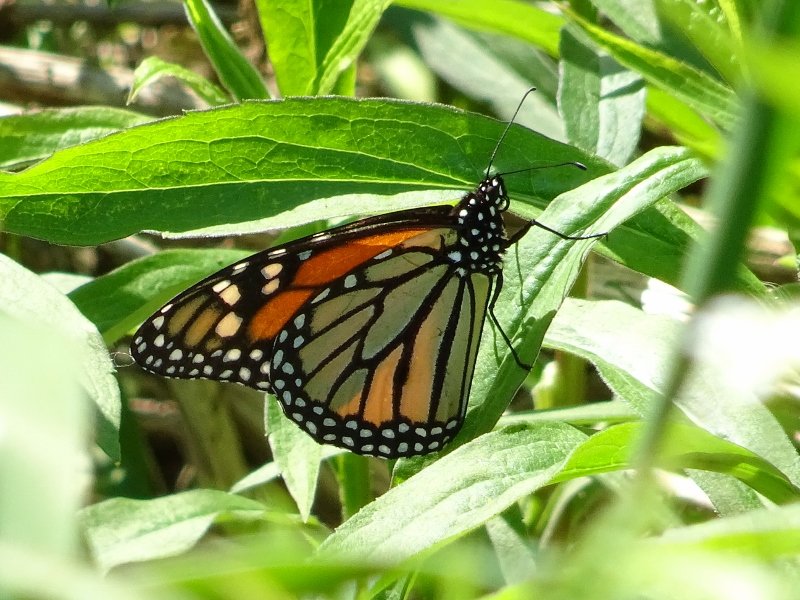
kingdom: Animalia
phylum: Arthropoda
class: Insecta
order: Lepidoptera
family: Nymphalidae
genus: Danaus
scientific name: Danaus plexippus
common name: Monarch
